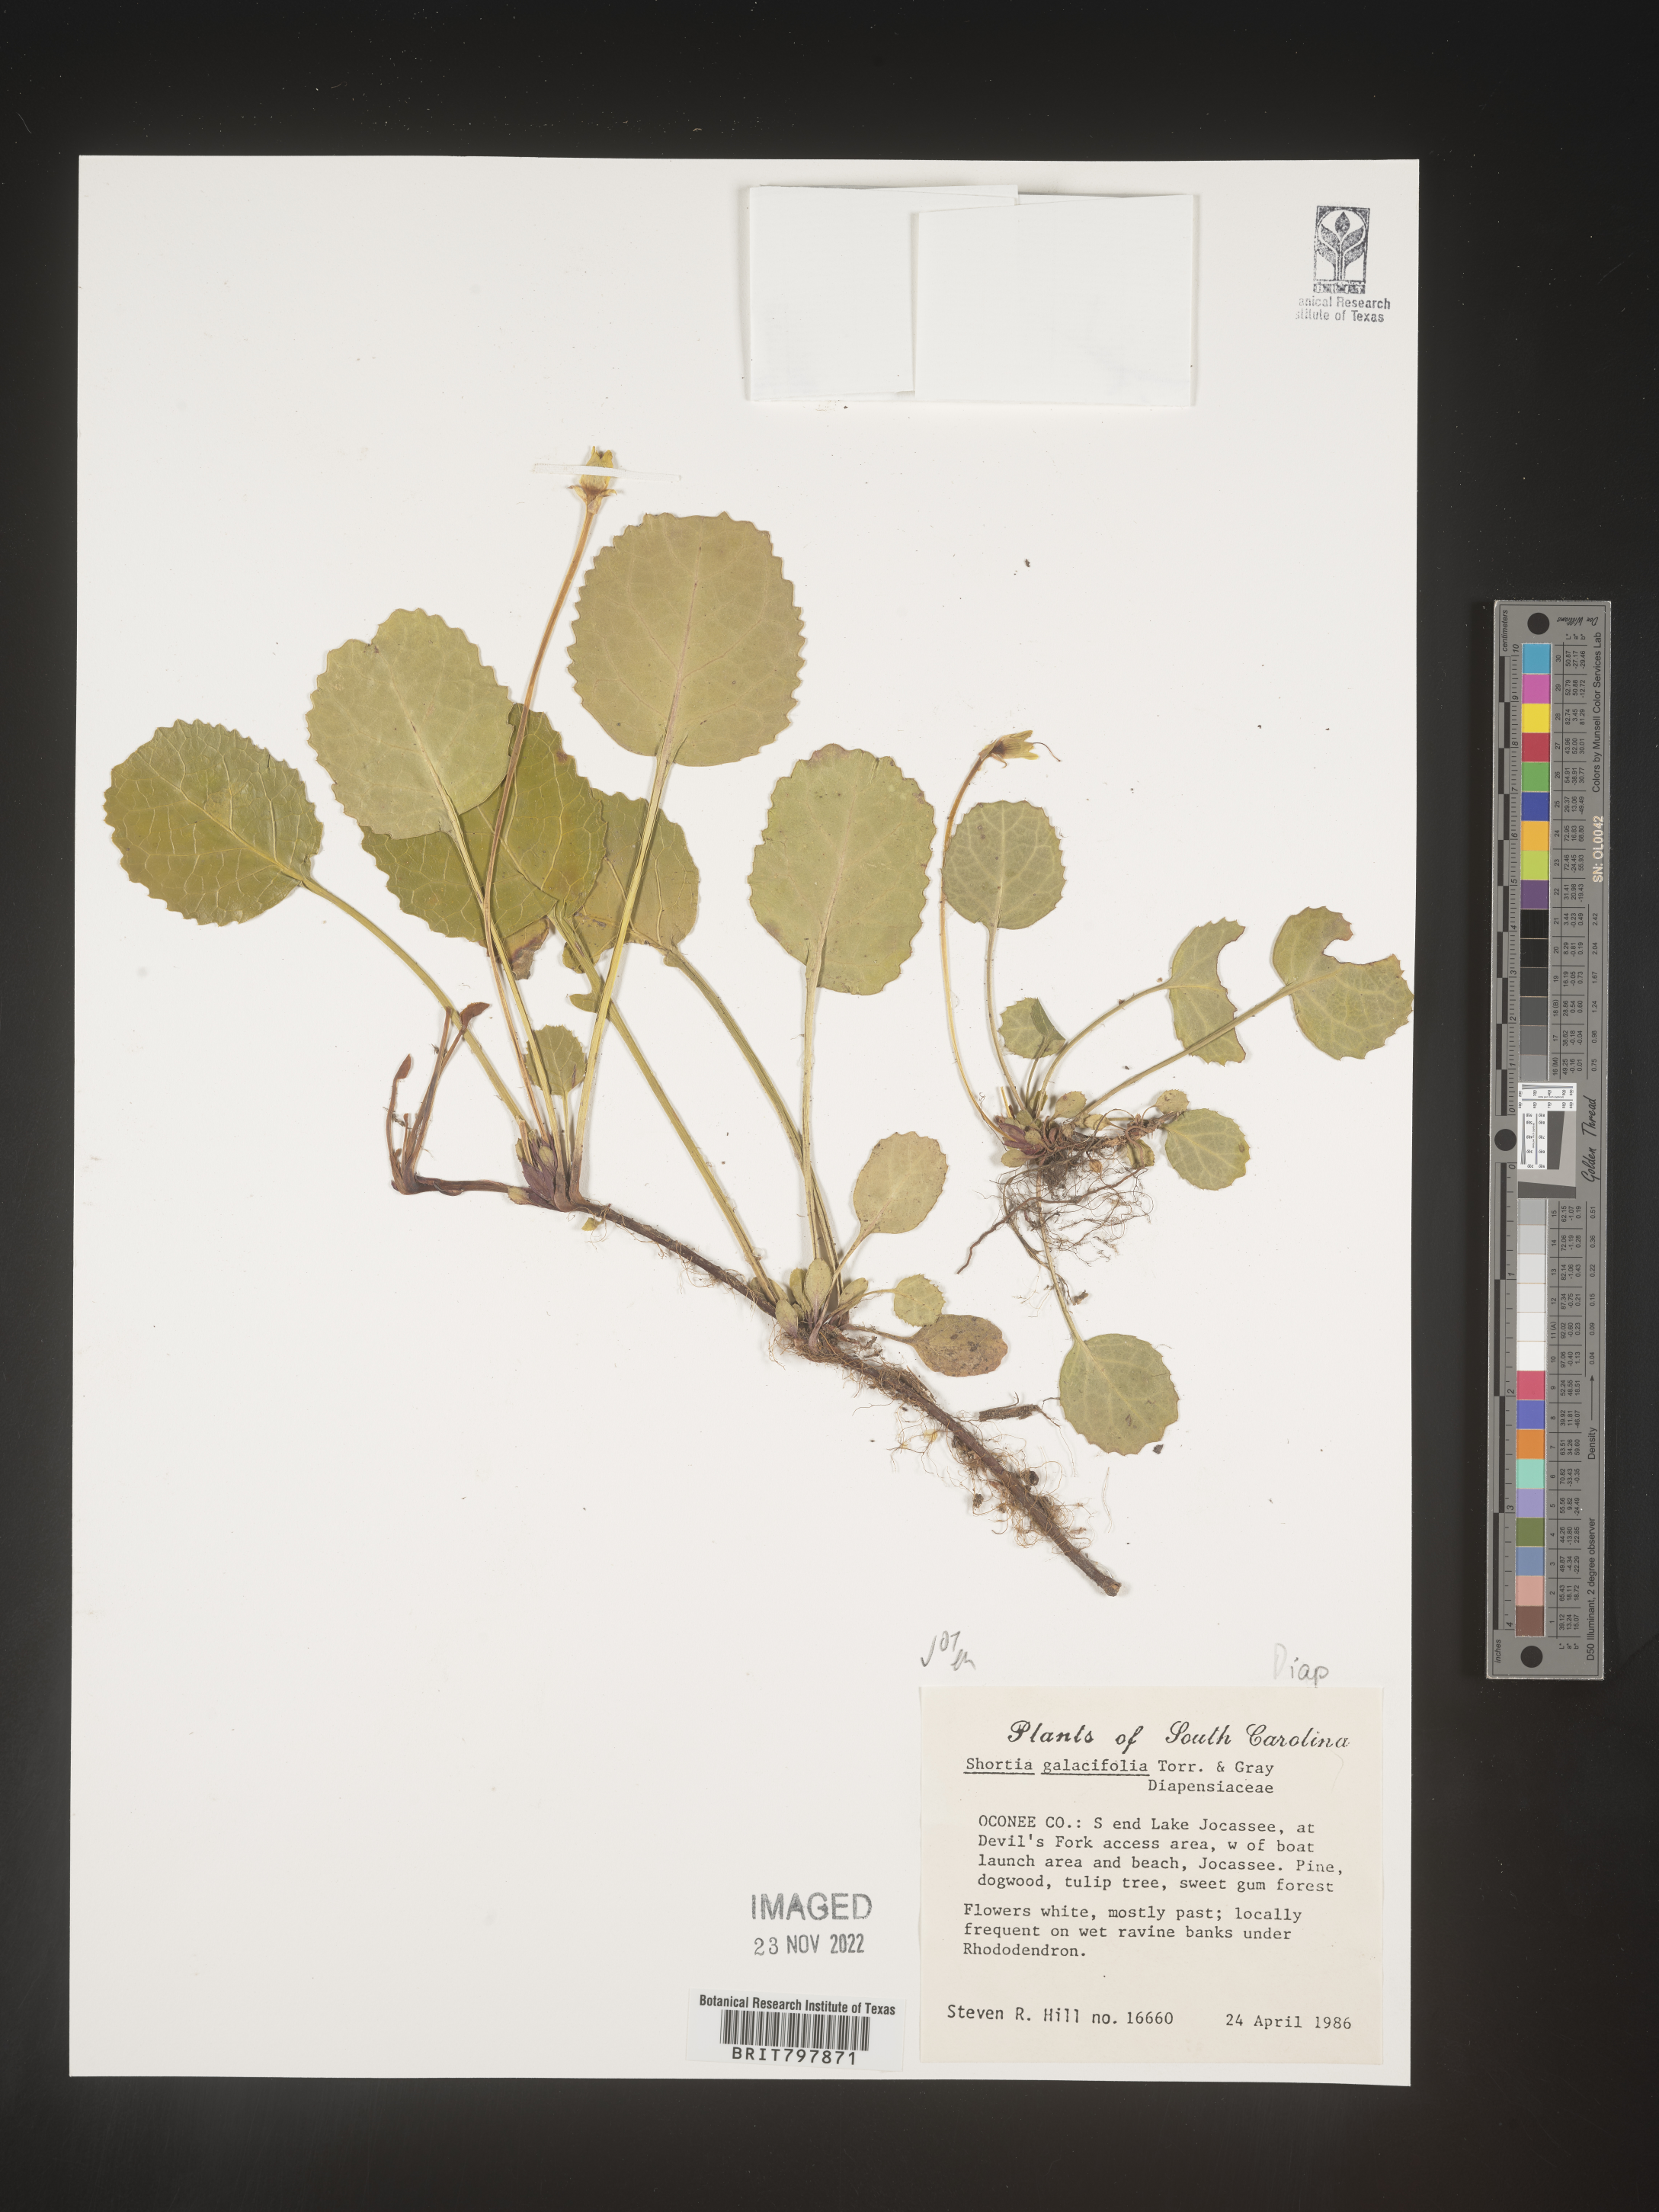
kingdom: Plantae
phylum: Tracheophyta
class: Magnoliopsida
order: Ericales
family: Diapensiaceae
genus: Shortia
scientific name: Shortia galacifolia
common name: Shortia
